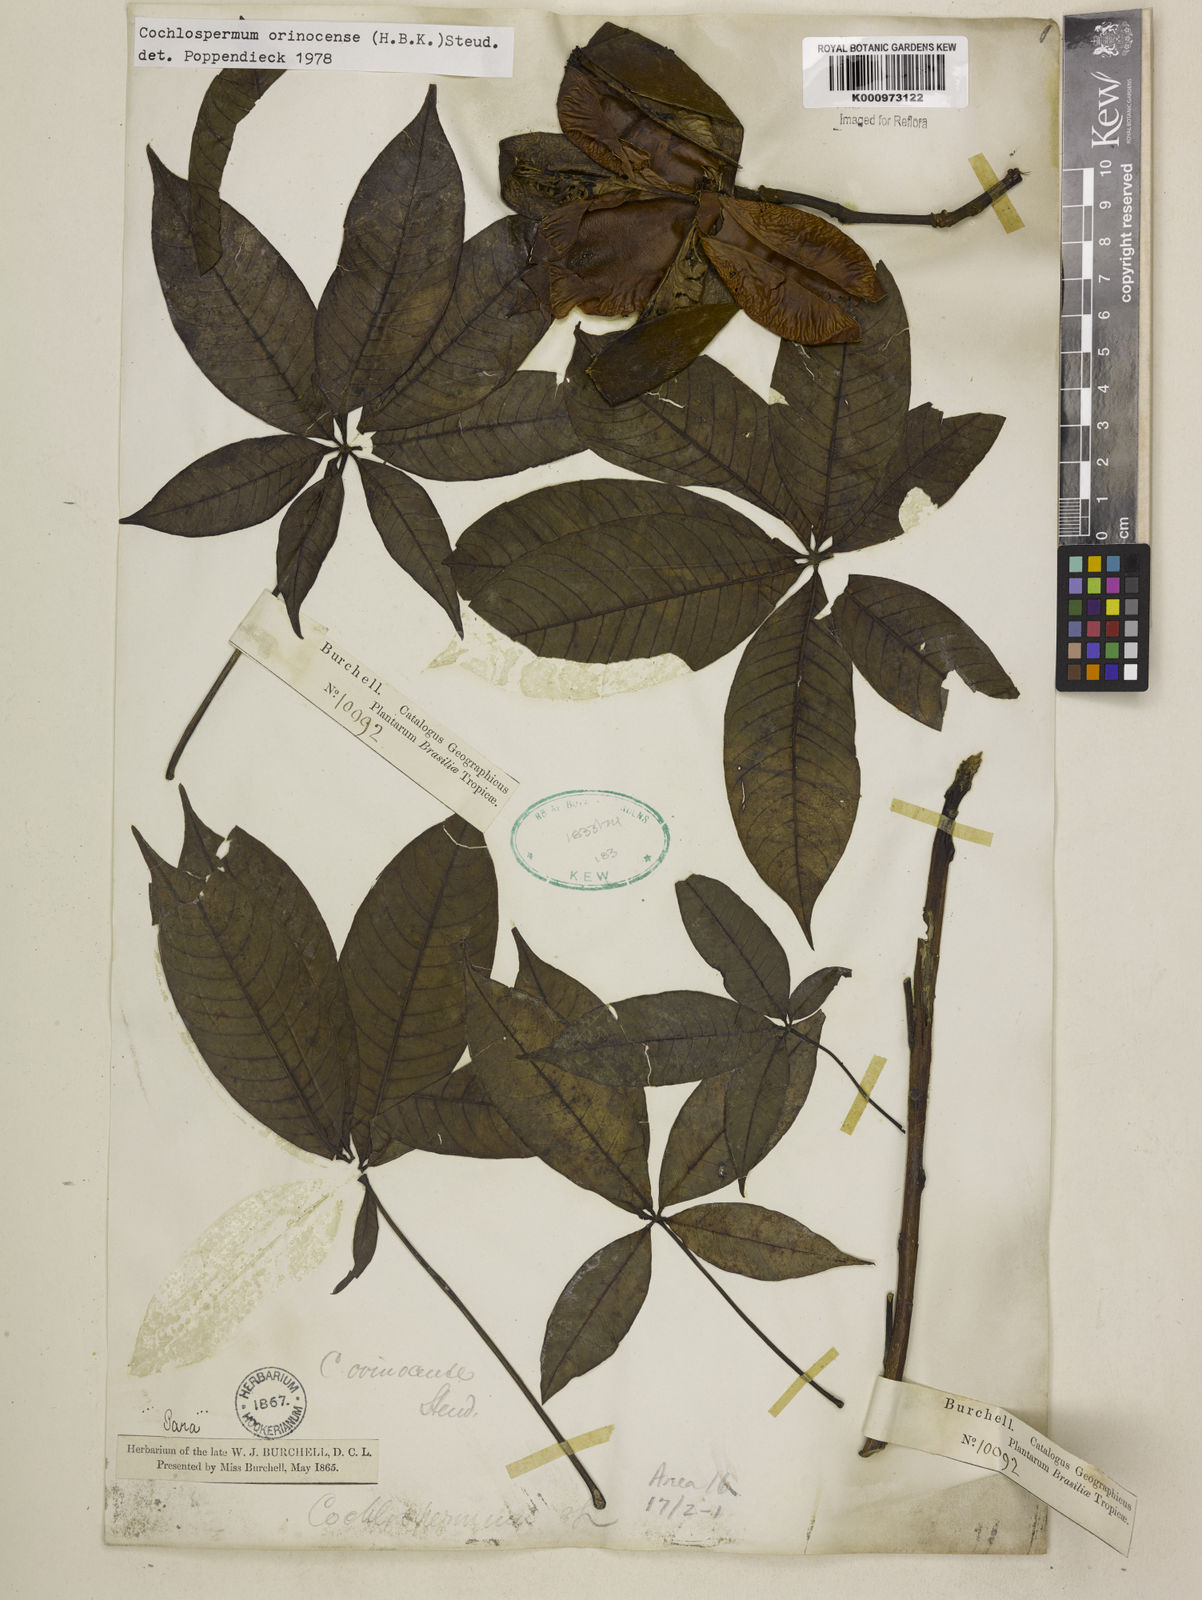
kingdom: Plantae
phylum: Tracheophyta
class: Magnoliopsida
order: Malvales
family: Cochlospermaceae
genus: Cochlospermum
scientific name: Cochlospermum orinocense
